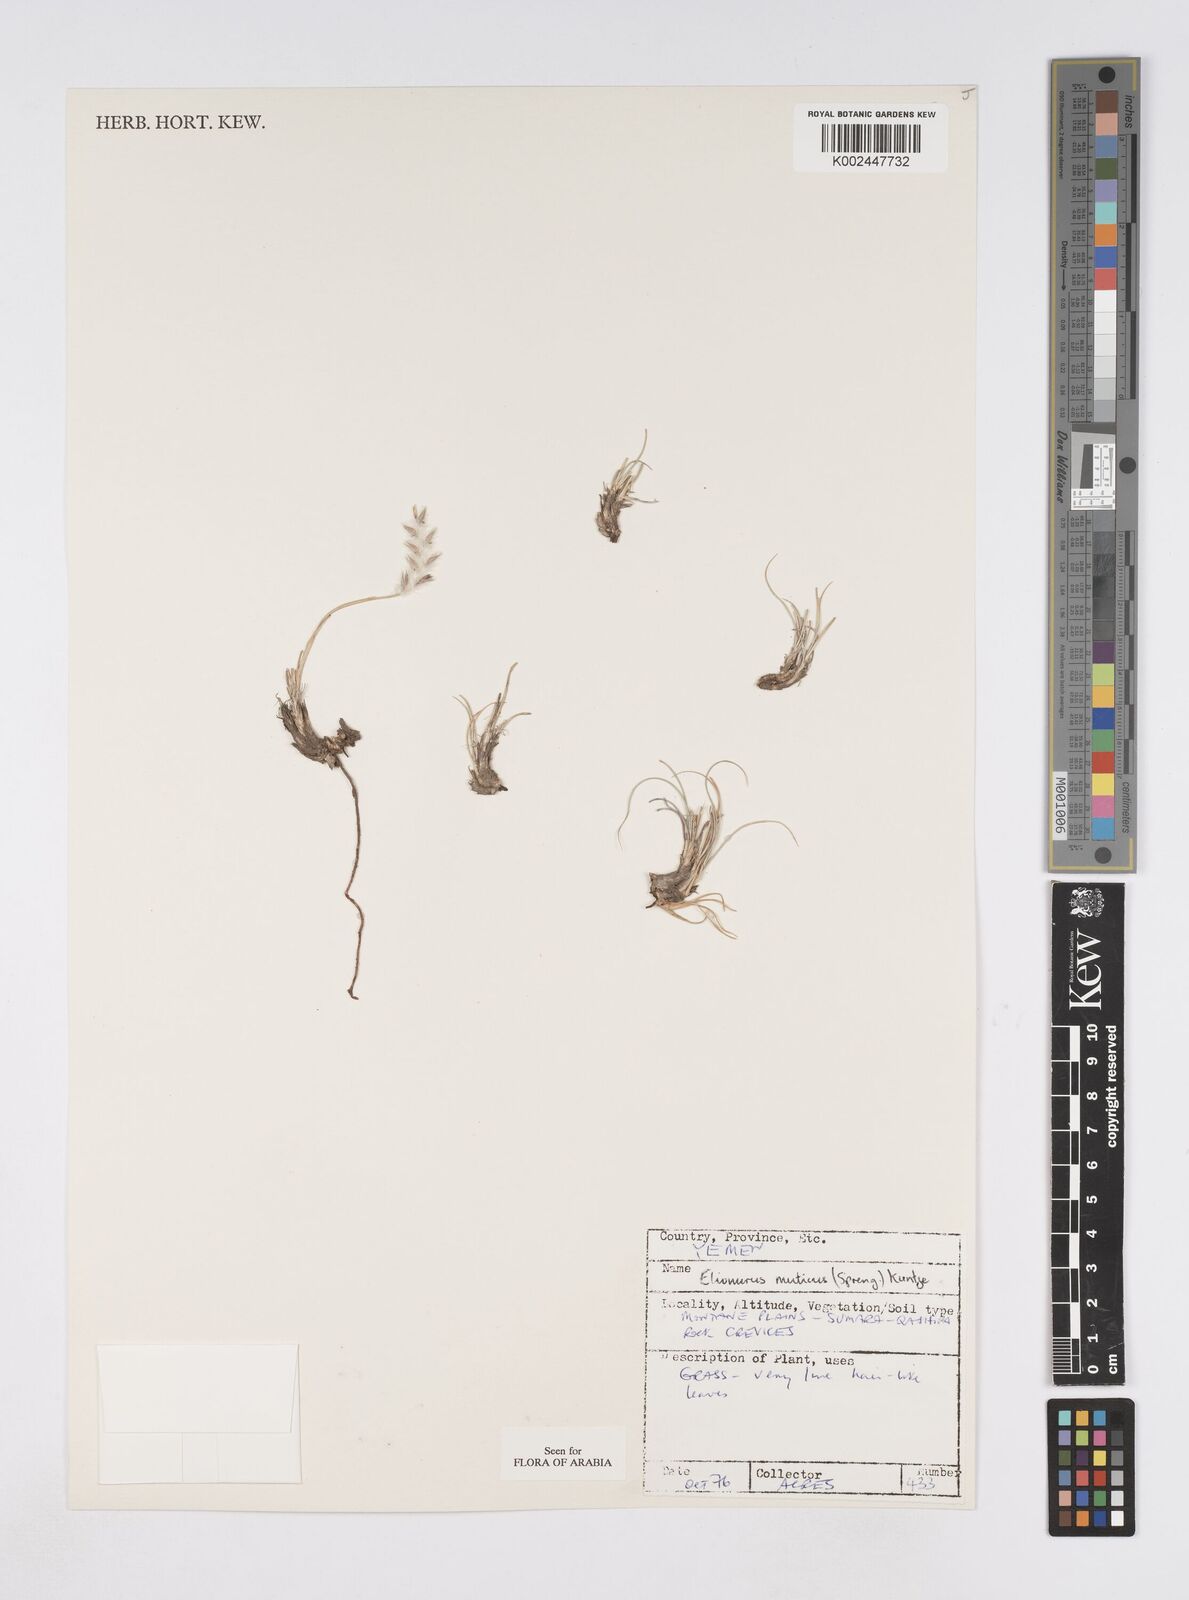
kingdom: Plantae
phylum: Tracheophyta
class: Liliopsida
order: Poales
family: Poaceae
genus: Elionurus
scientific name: Elionurus muticus
